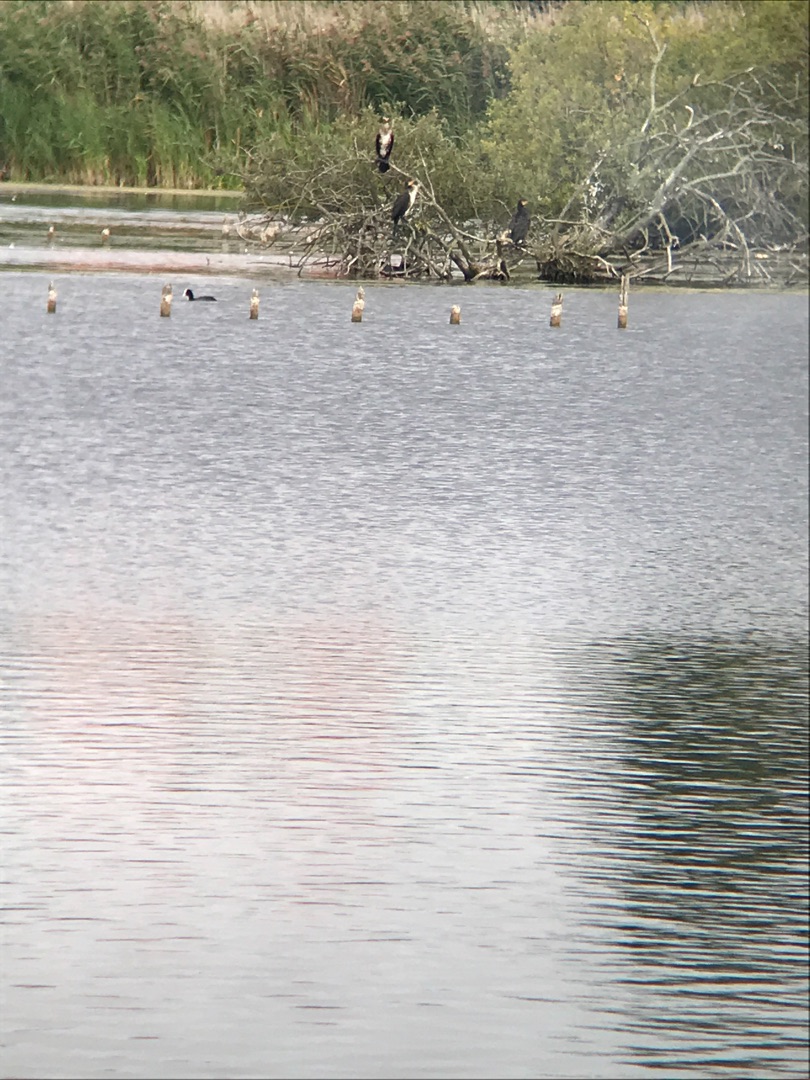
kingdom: Animalia
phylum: Chordata
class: Aves
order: Suliformes
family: Phalacrocoracidae
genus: Phalacrocorax
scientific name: Phalacrocorax carbo
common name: Skarv
